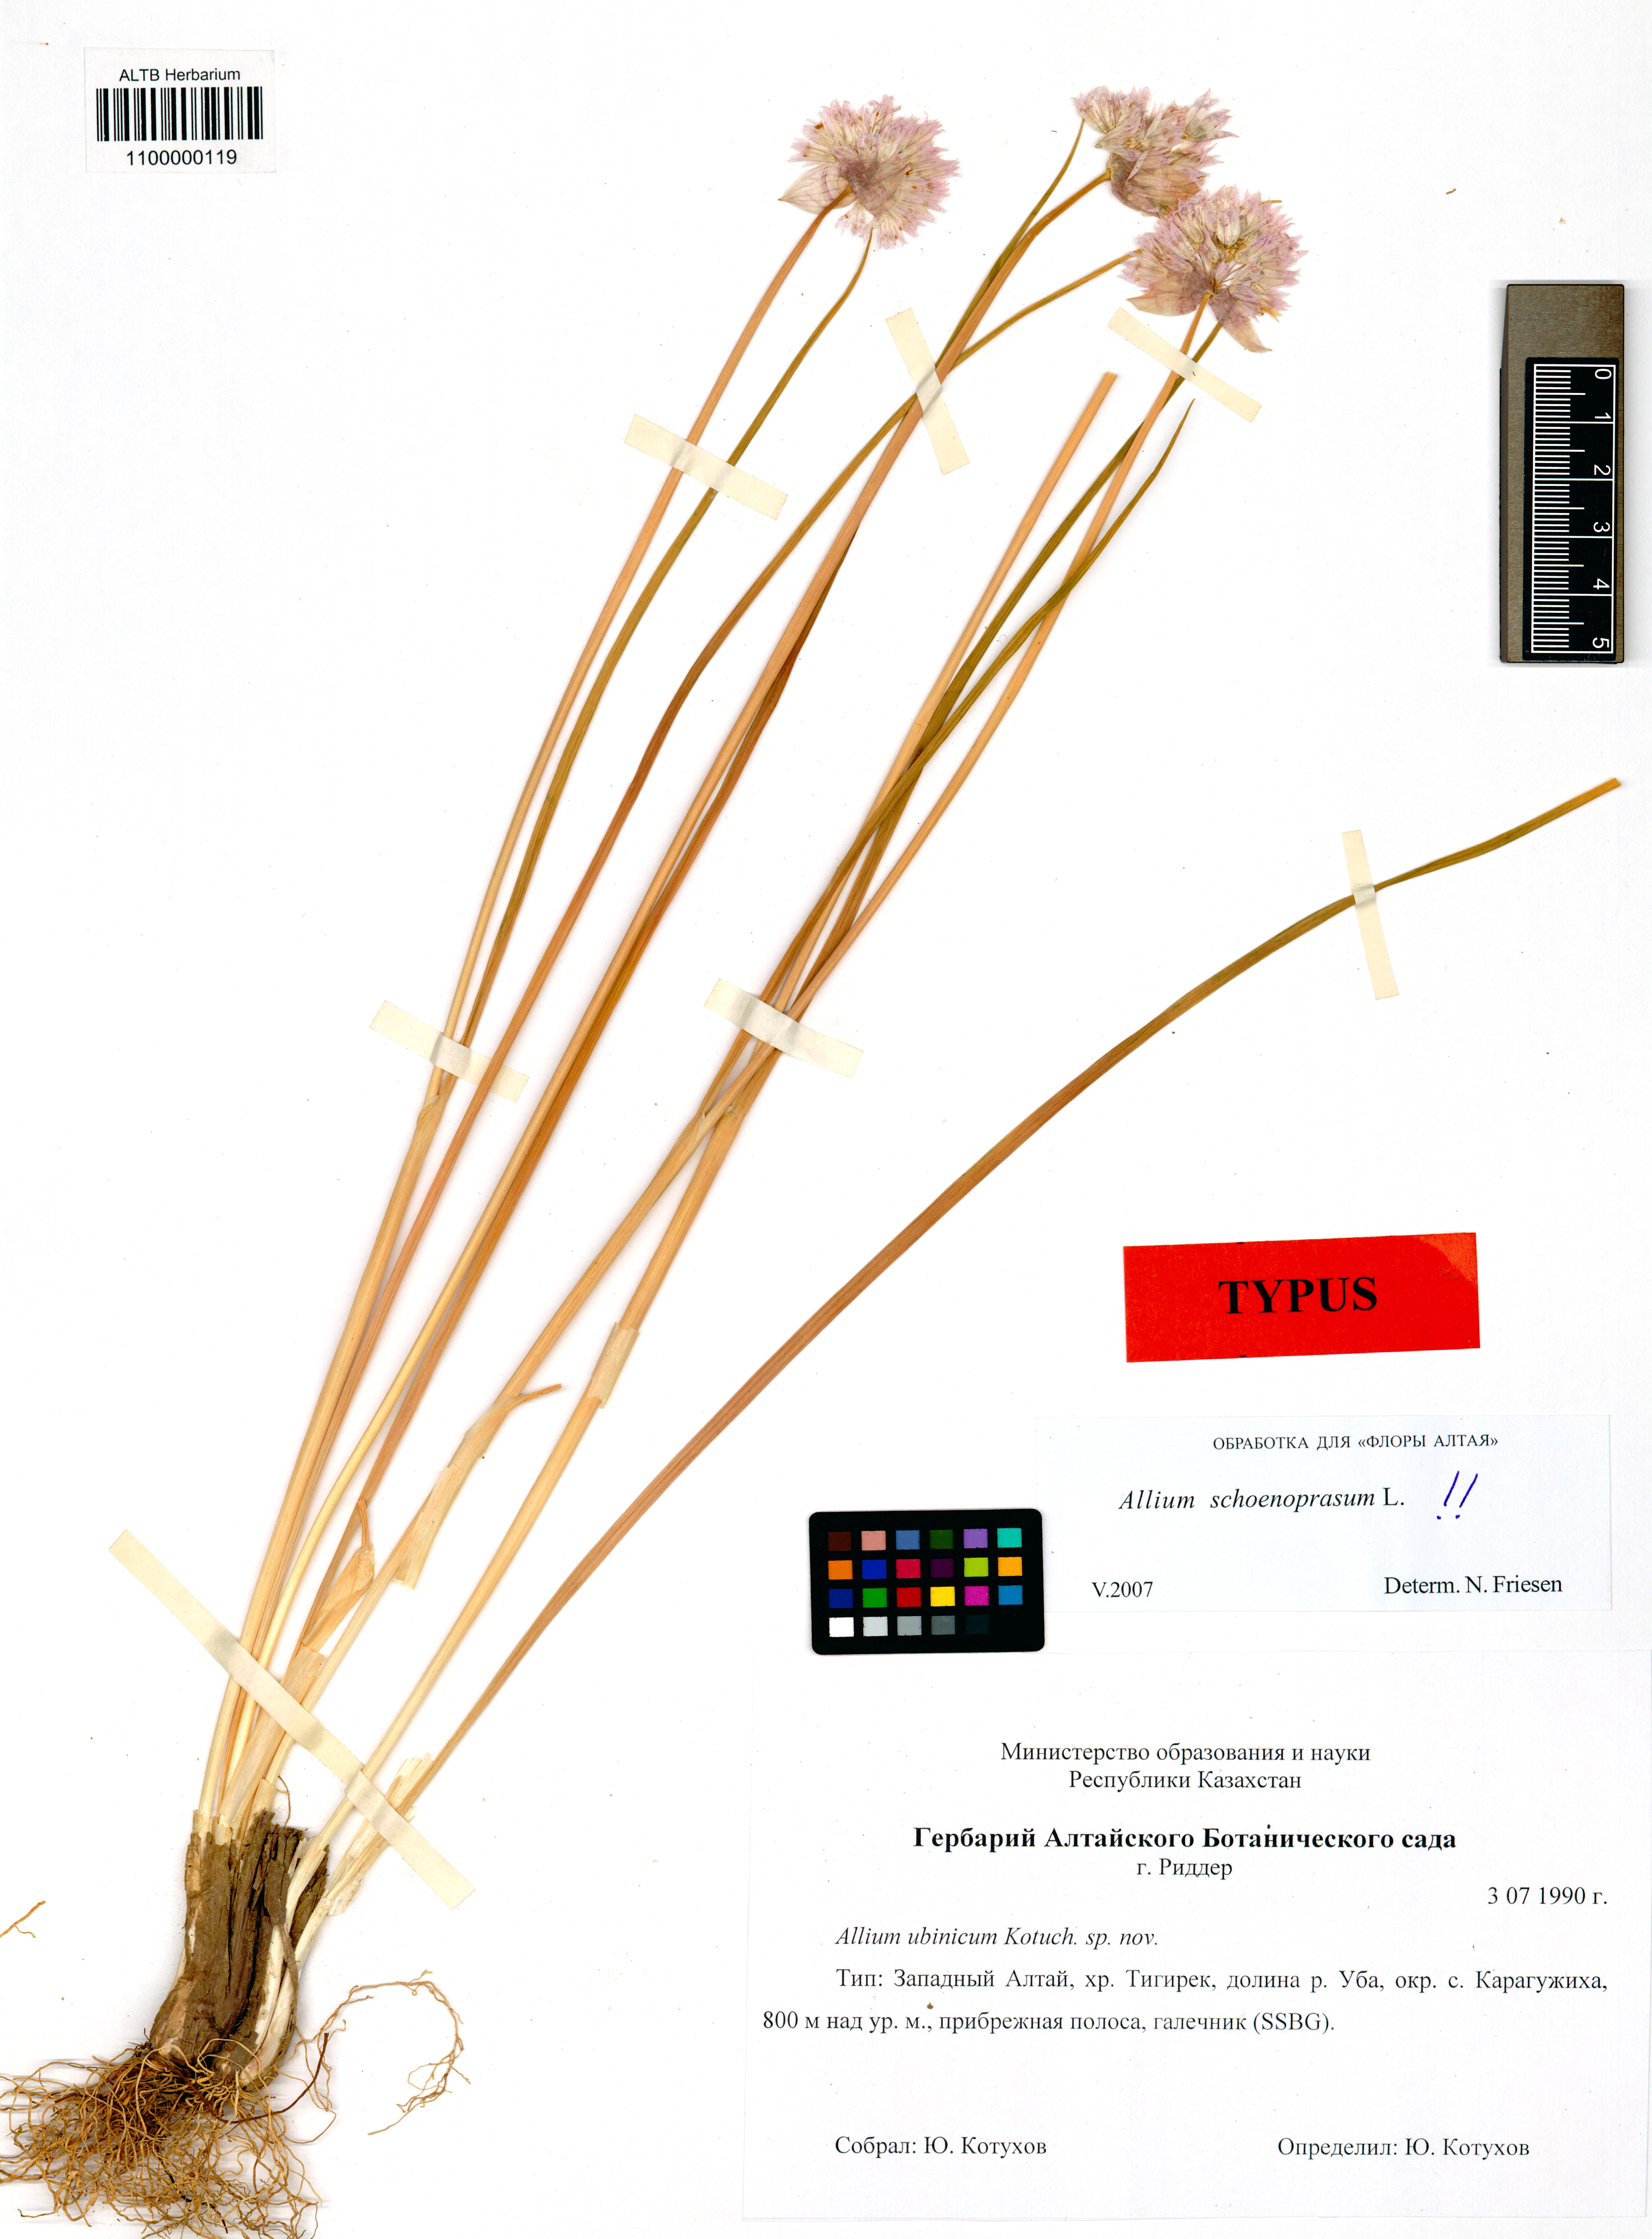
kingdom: Plantae
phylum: Tracheophyta
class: Liliopsida
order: Asparagales
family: Amaryllidaceae
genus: Allium
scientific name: Allium schoenoprasum
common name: Chives
